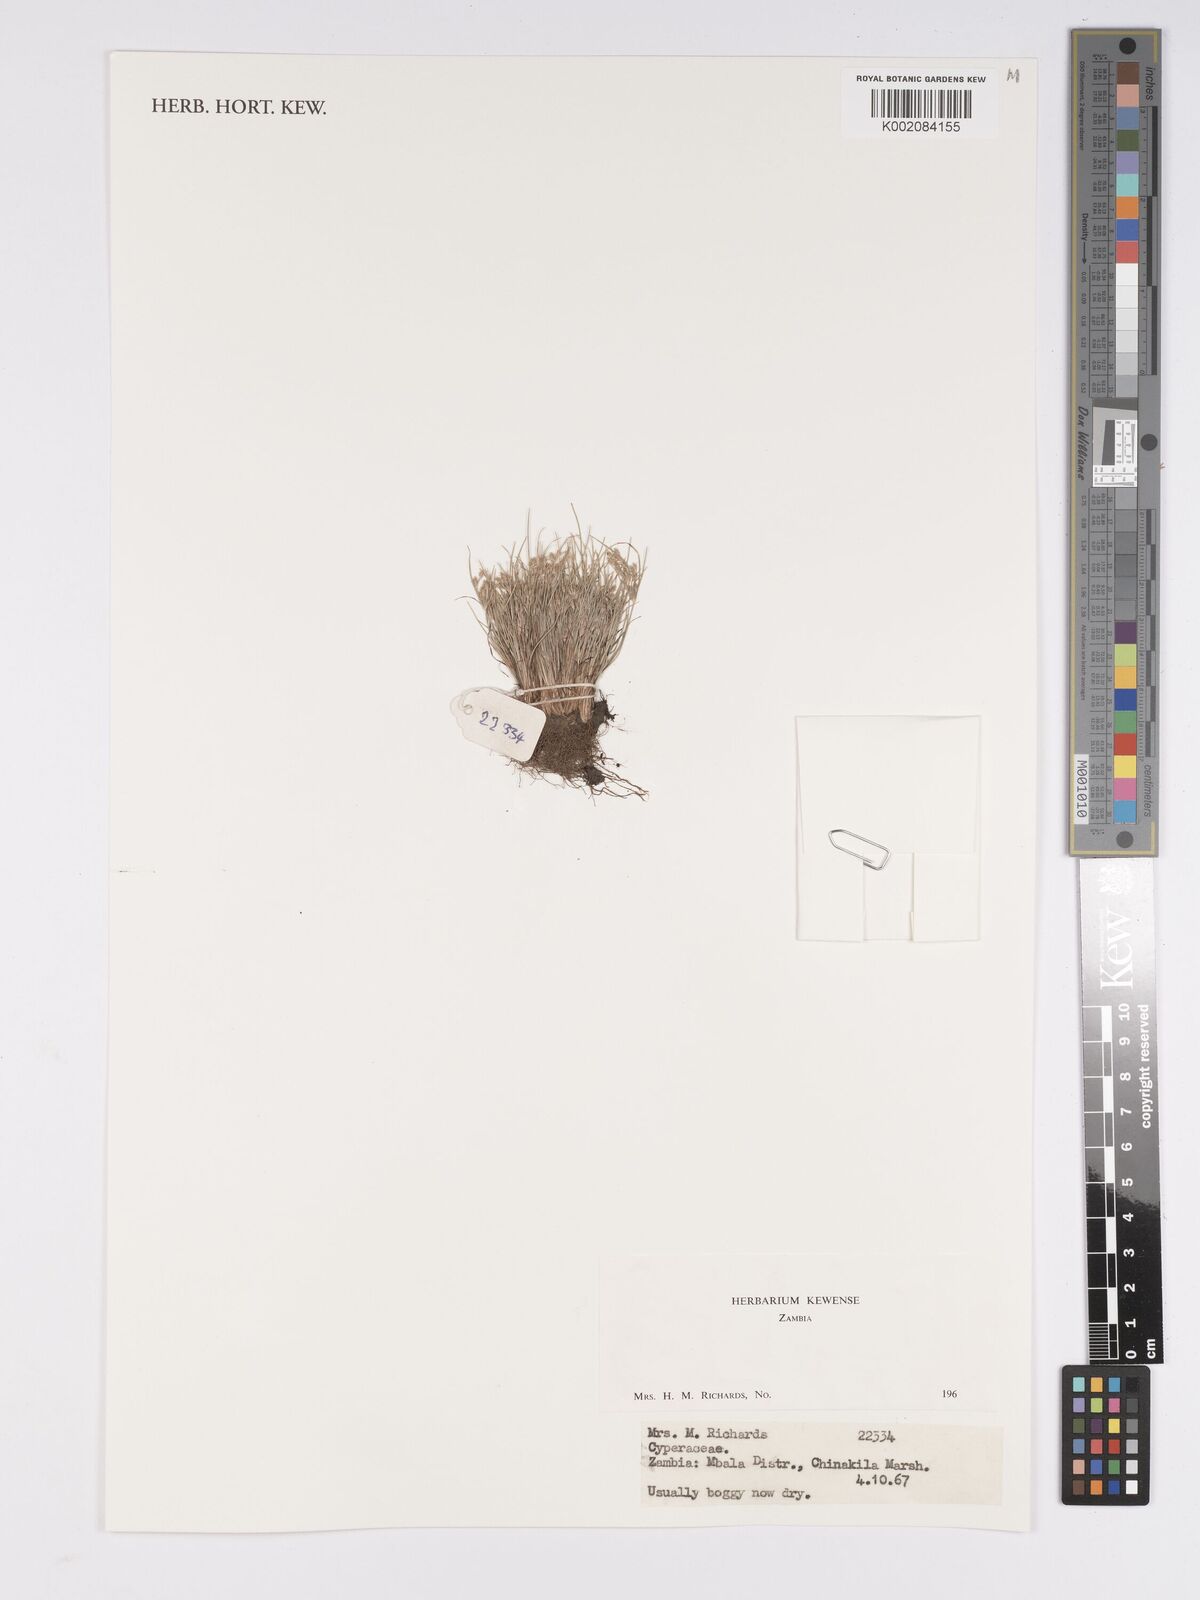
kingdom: Plantae
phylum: Tracheophyta
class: Liliopsida
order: Poales
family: Cyperaceae
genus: Bulbostylis
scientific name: Bulbostylis
